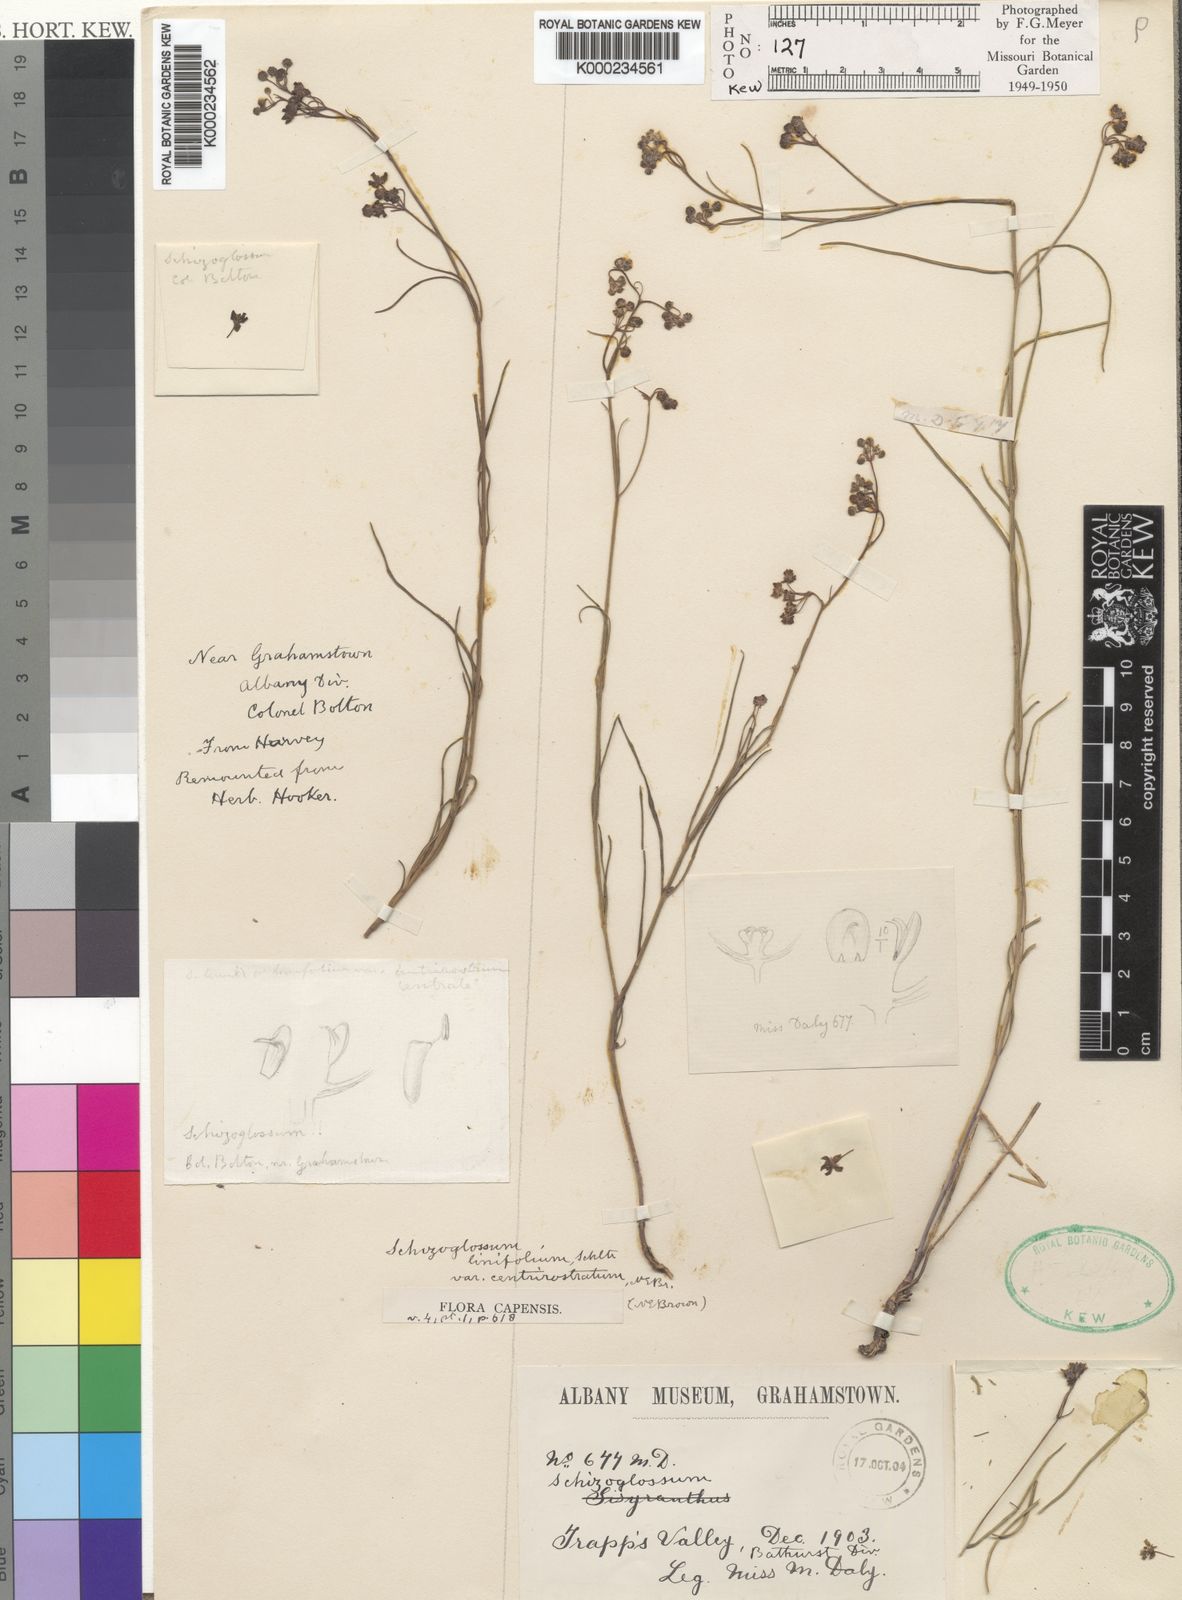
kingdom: Plantae
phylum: Tracheophyta
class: Magnoliopsida
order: Gentianales
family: Apocynaceae
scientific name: Apocynaceae
